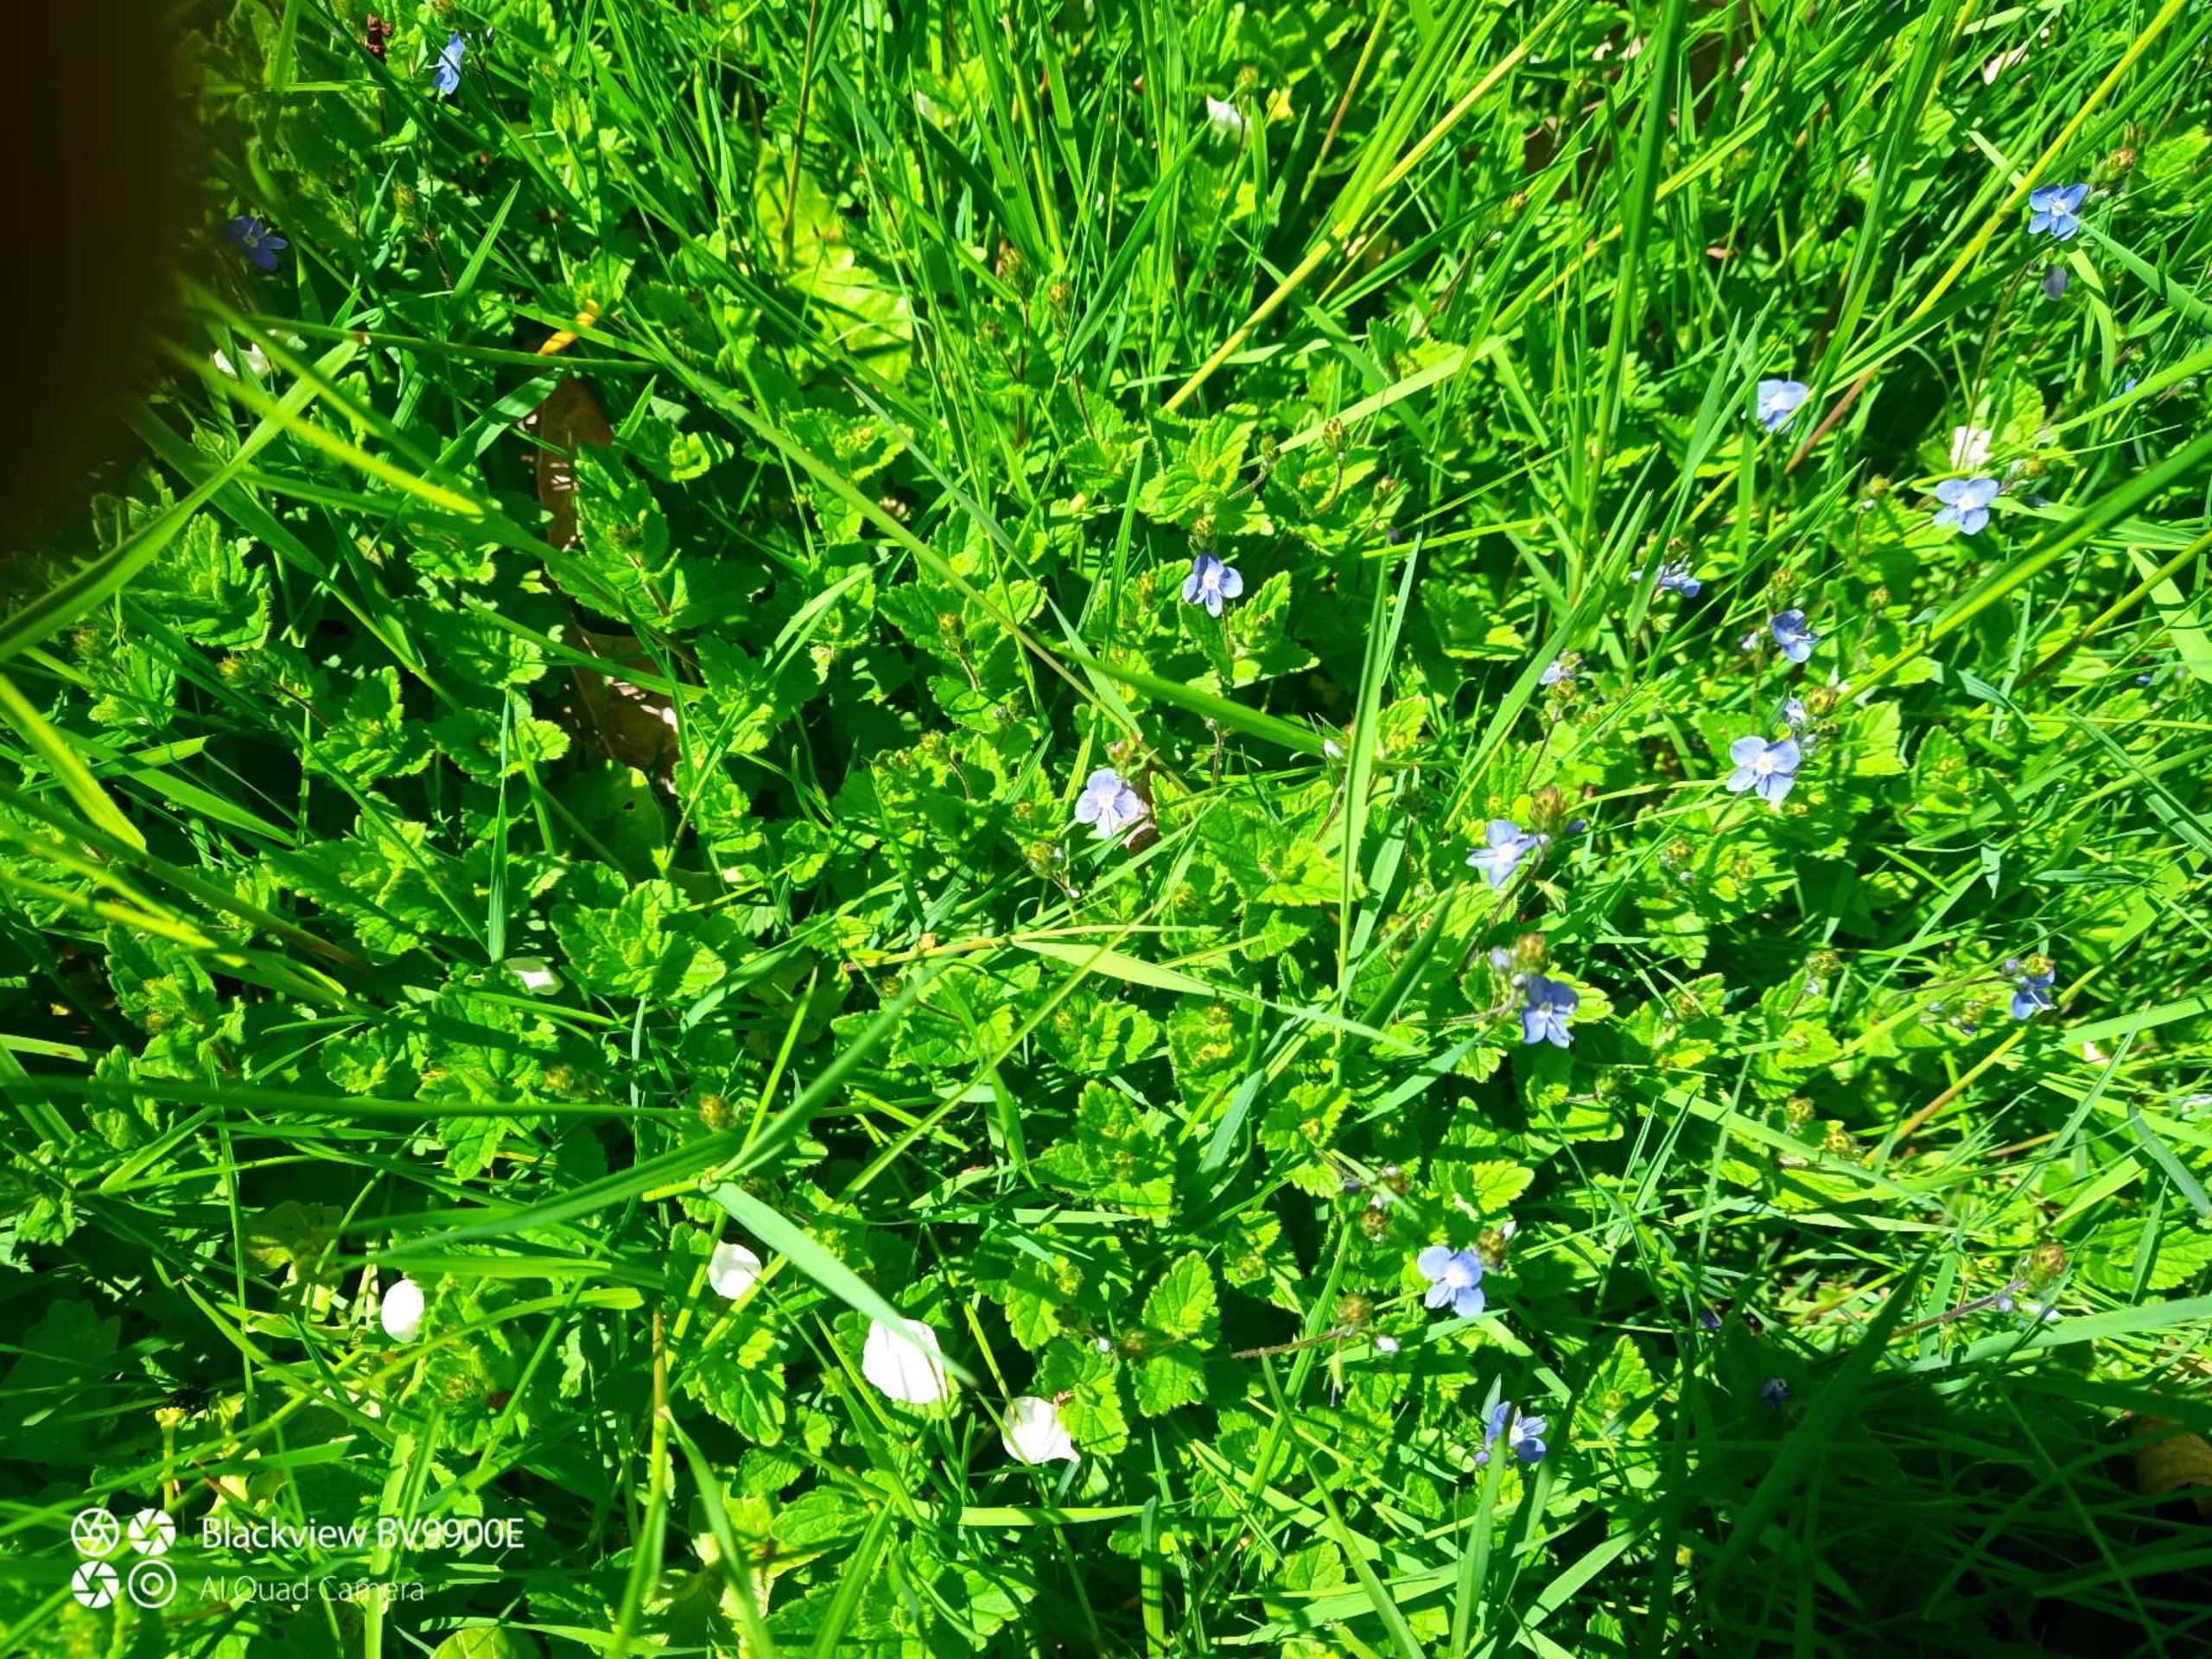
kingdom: Plantae
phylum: Tracheophyta
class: Magnoliopsida
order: Lamiales
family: Plantaginaceae
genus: Veronica
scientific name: Veronica chamaedrys
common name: Tveskægget ærenpris
